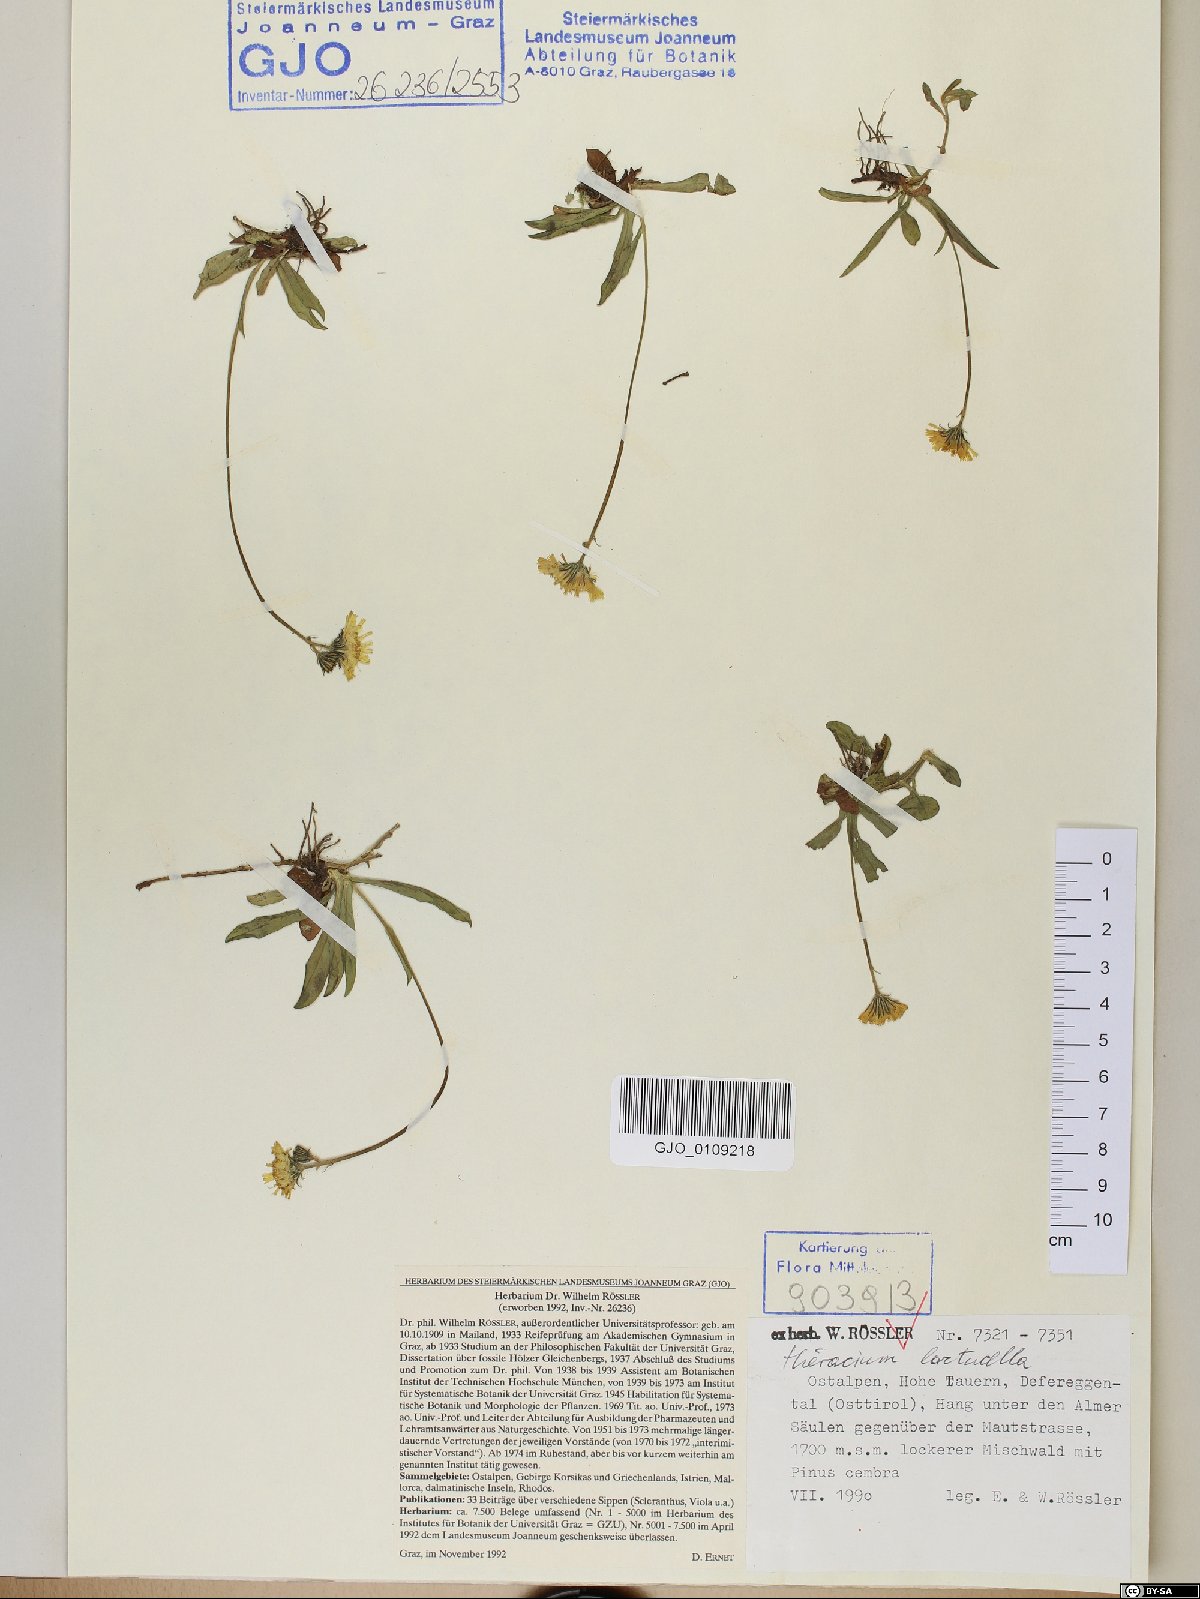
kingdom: Plantae
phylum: Tracheophyta
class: Magnoliopsida
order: Asterales
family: Asteraceae
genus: Pilosella
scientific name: Pilosella lactucella
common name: Glaucous fox-and-cubs
